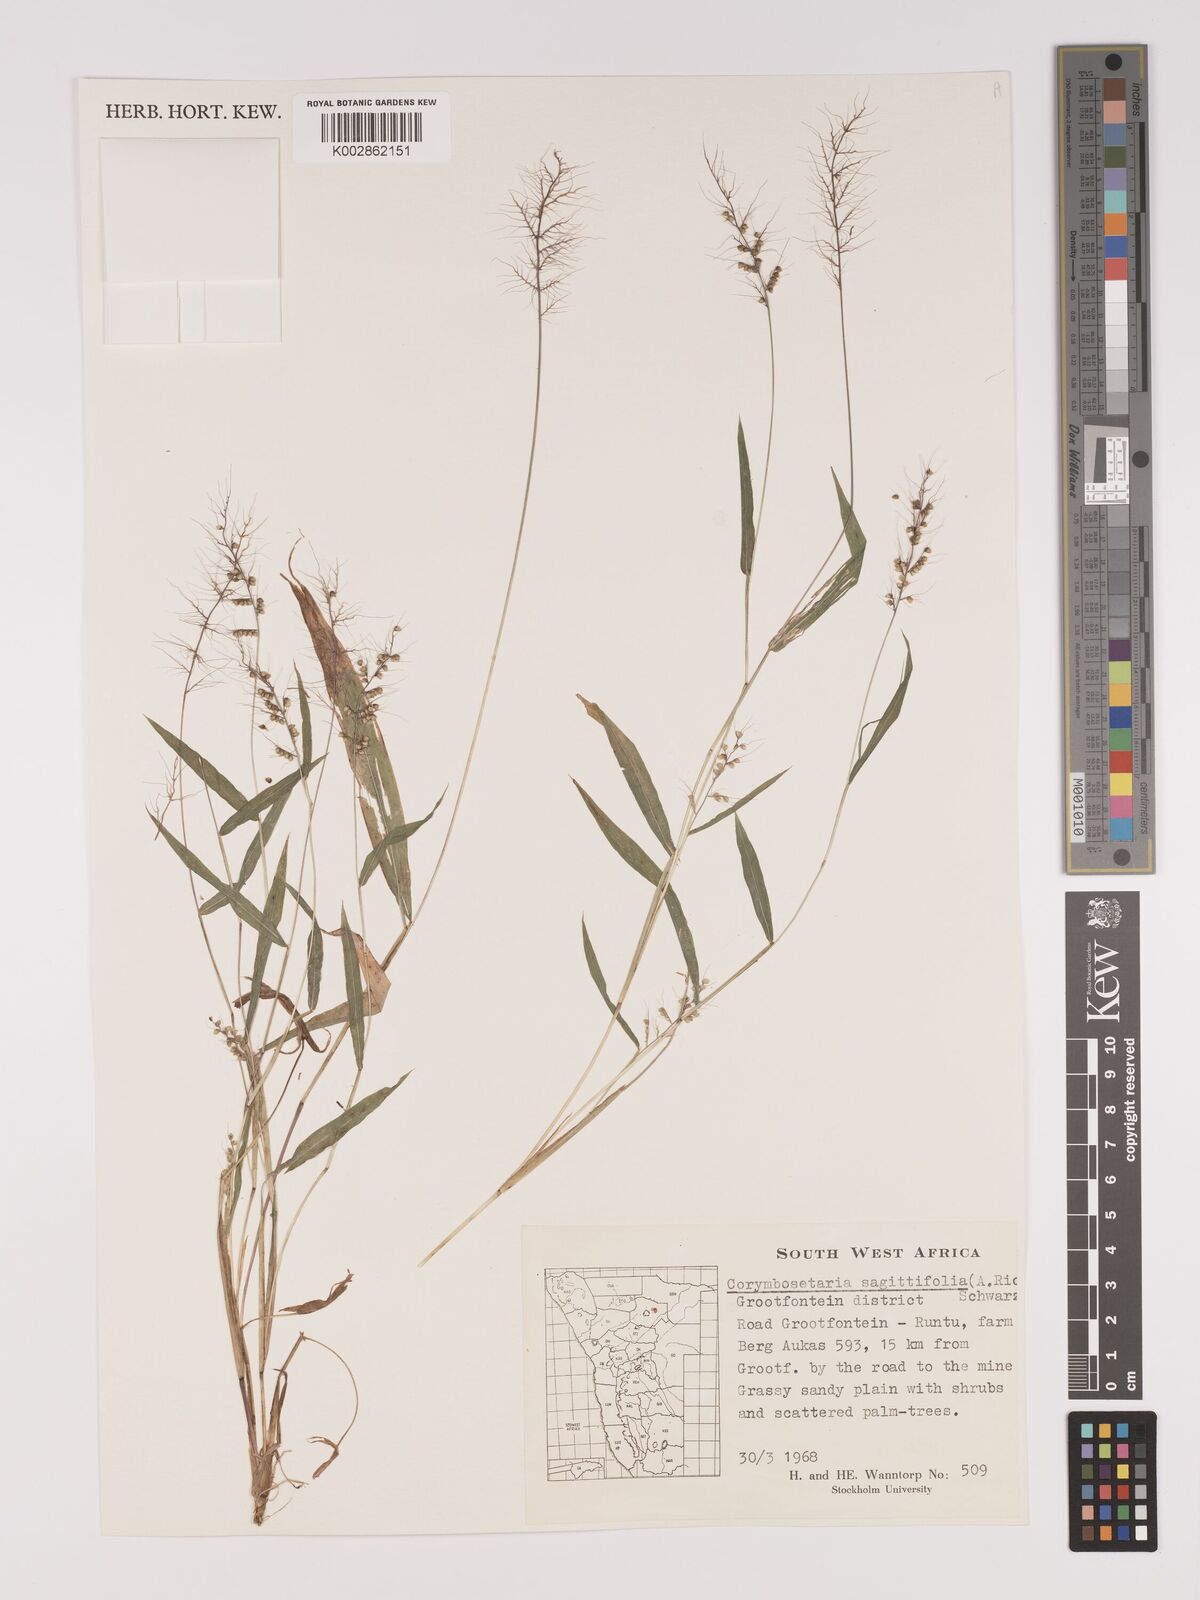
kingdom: Plantae
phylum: Tracheophyta
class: Liliopsida
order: Poales
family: Poaceae
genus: Setaria
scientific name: Setaria sagittifolia
